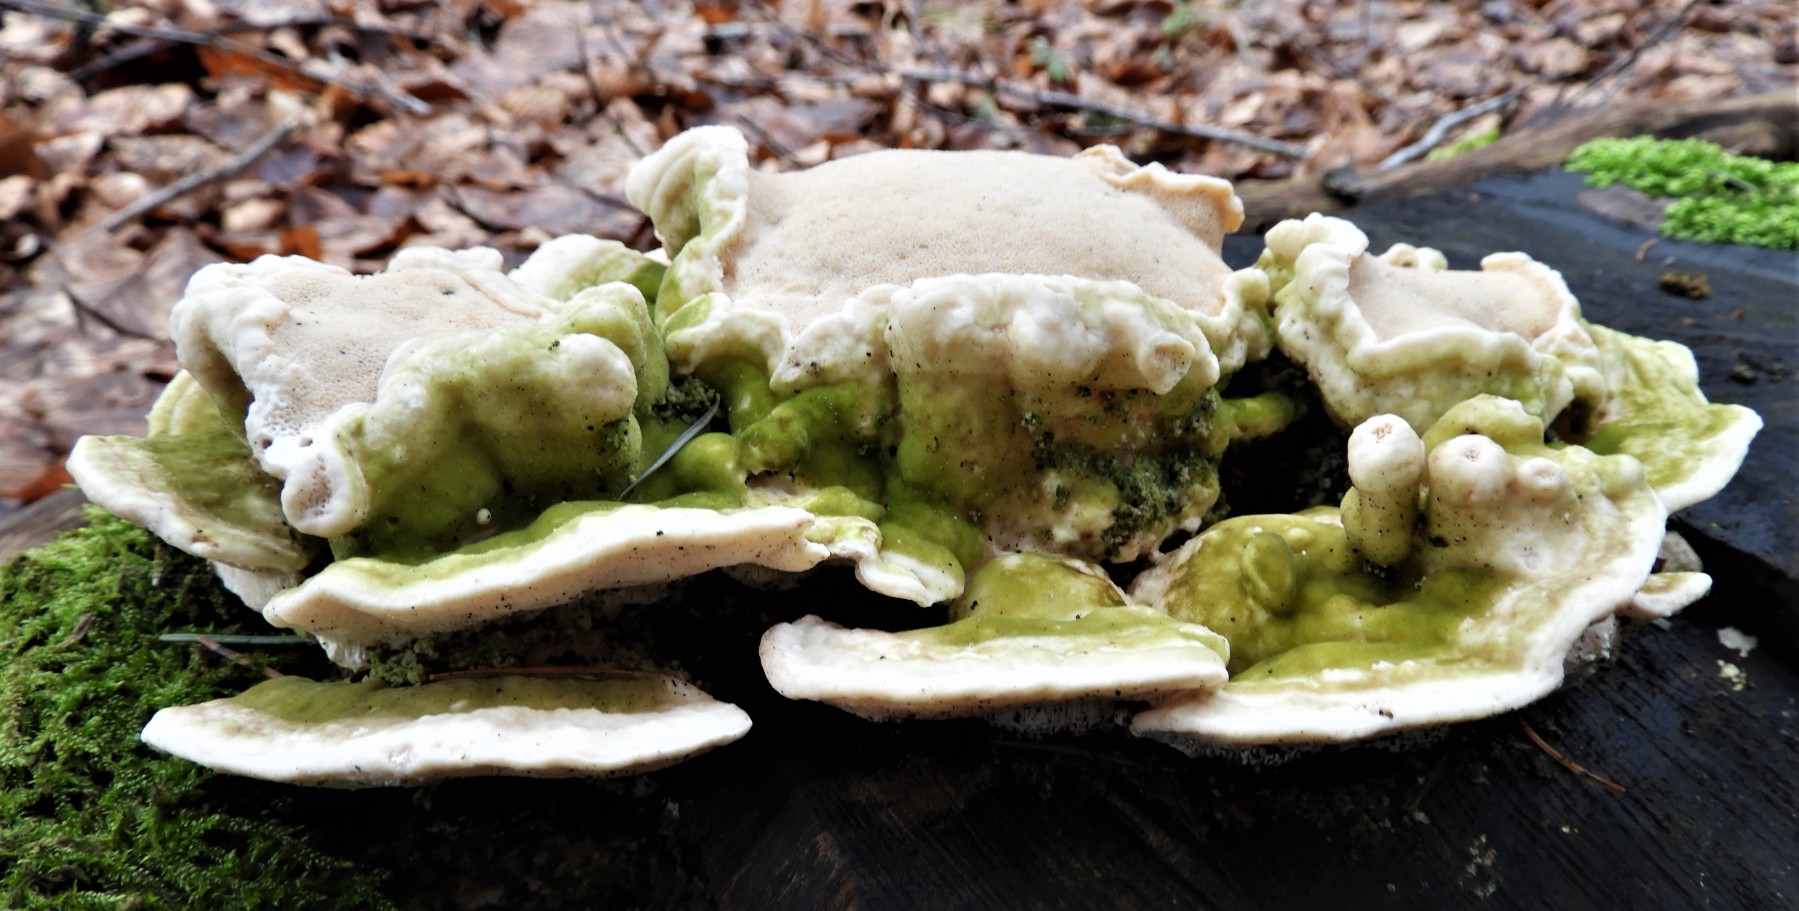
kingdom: Fungi
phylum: Basidiomycota
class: Agaricomycetes
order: Polyporales
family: Polyporaceae
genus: Trametes
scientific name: Trametes gibbosa
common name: puklet læderporesvamp
